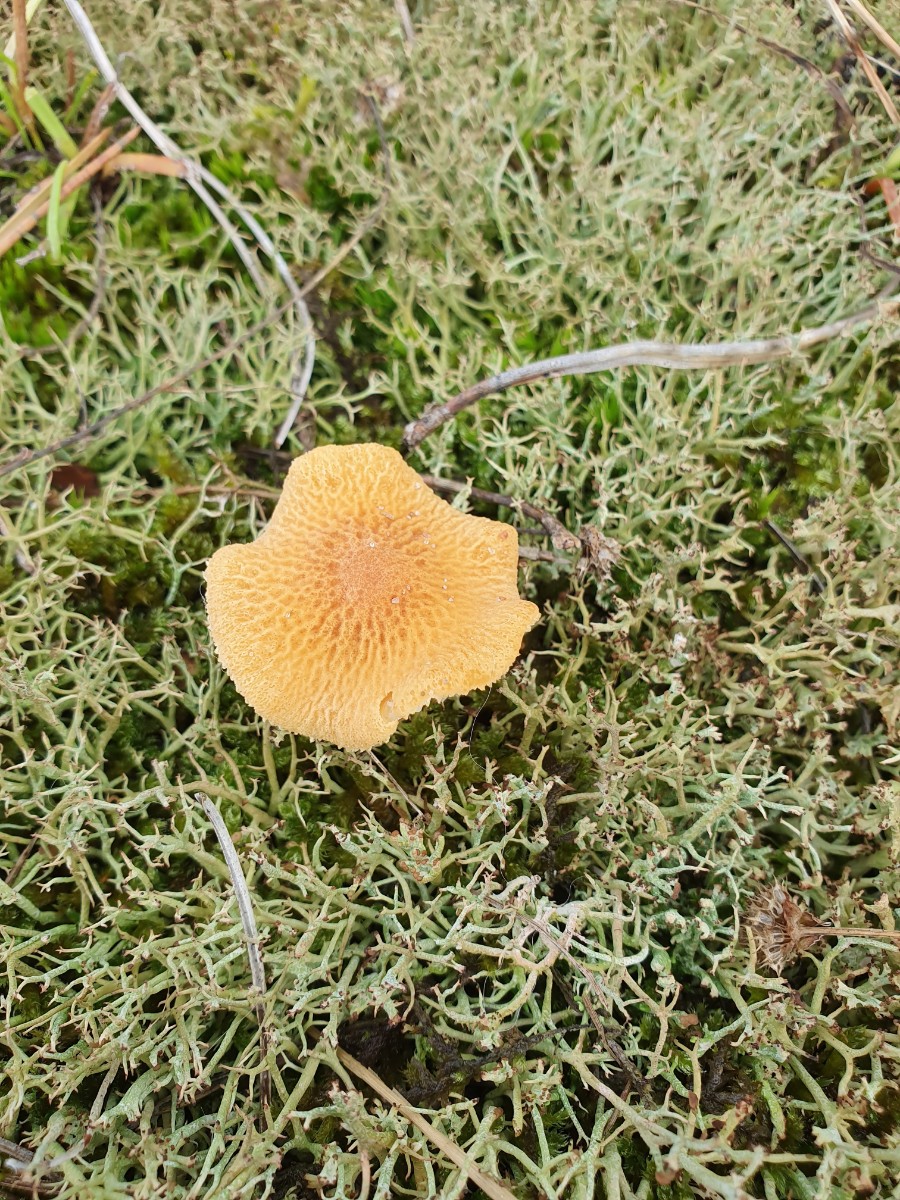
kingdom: Fungi
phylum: Basidiomycota
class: Agaricomycetes
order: Agaricales
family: Tricholomataceae
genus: Cystoderma
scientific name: Cystoderma amianthinum
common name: okkergul grynhat
